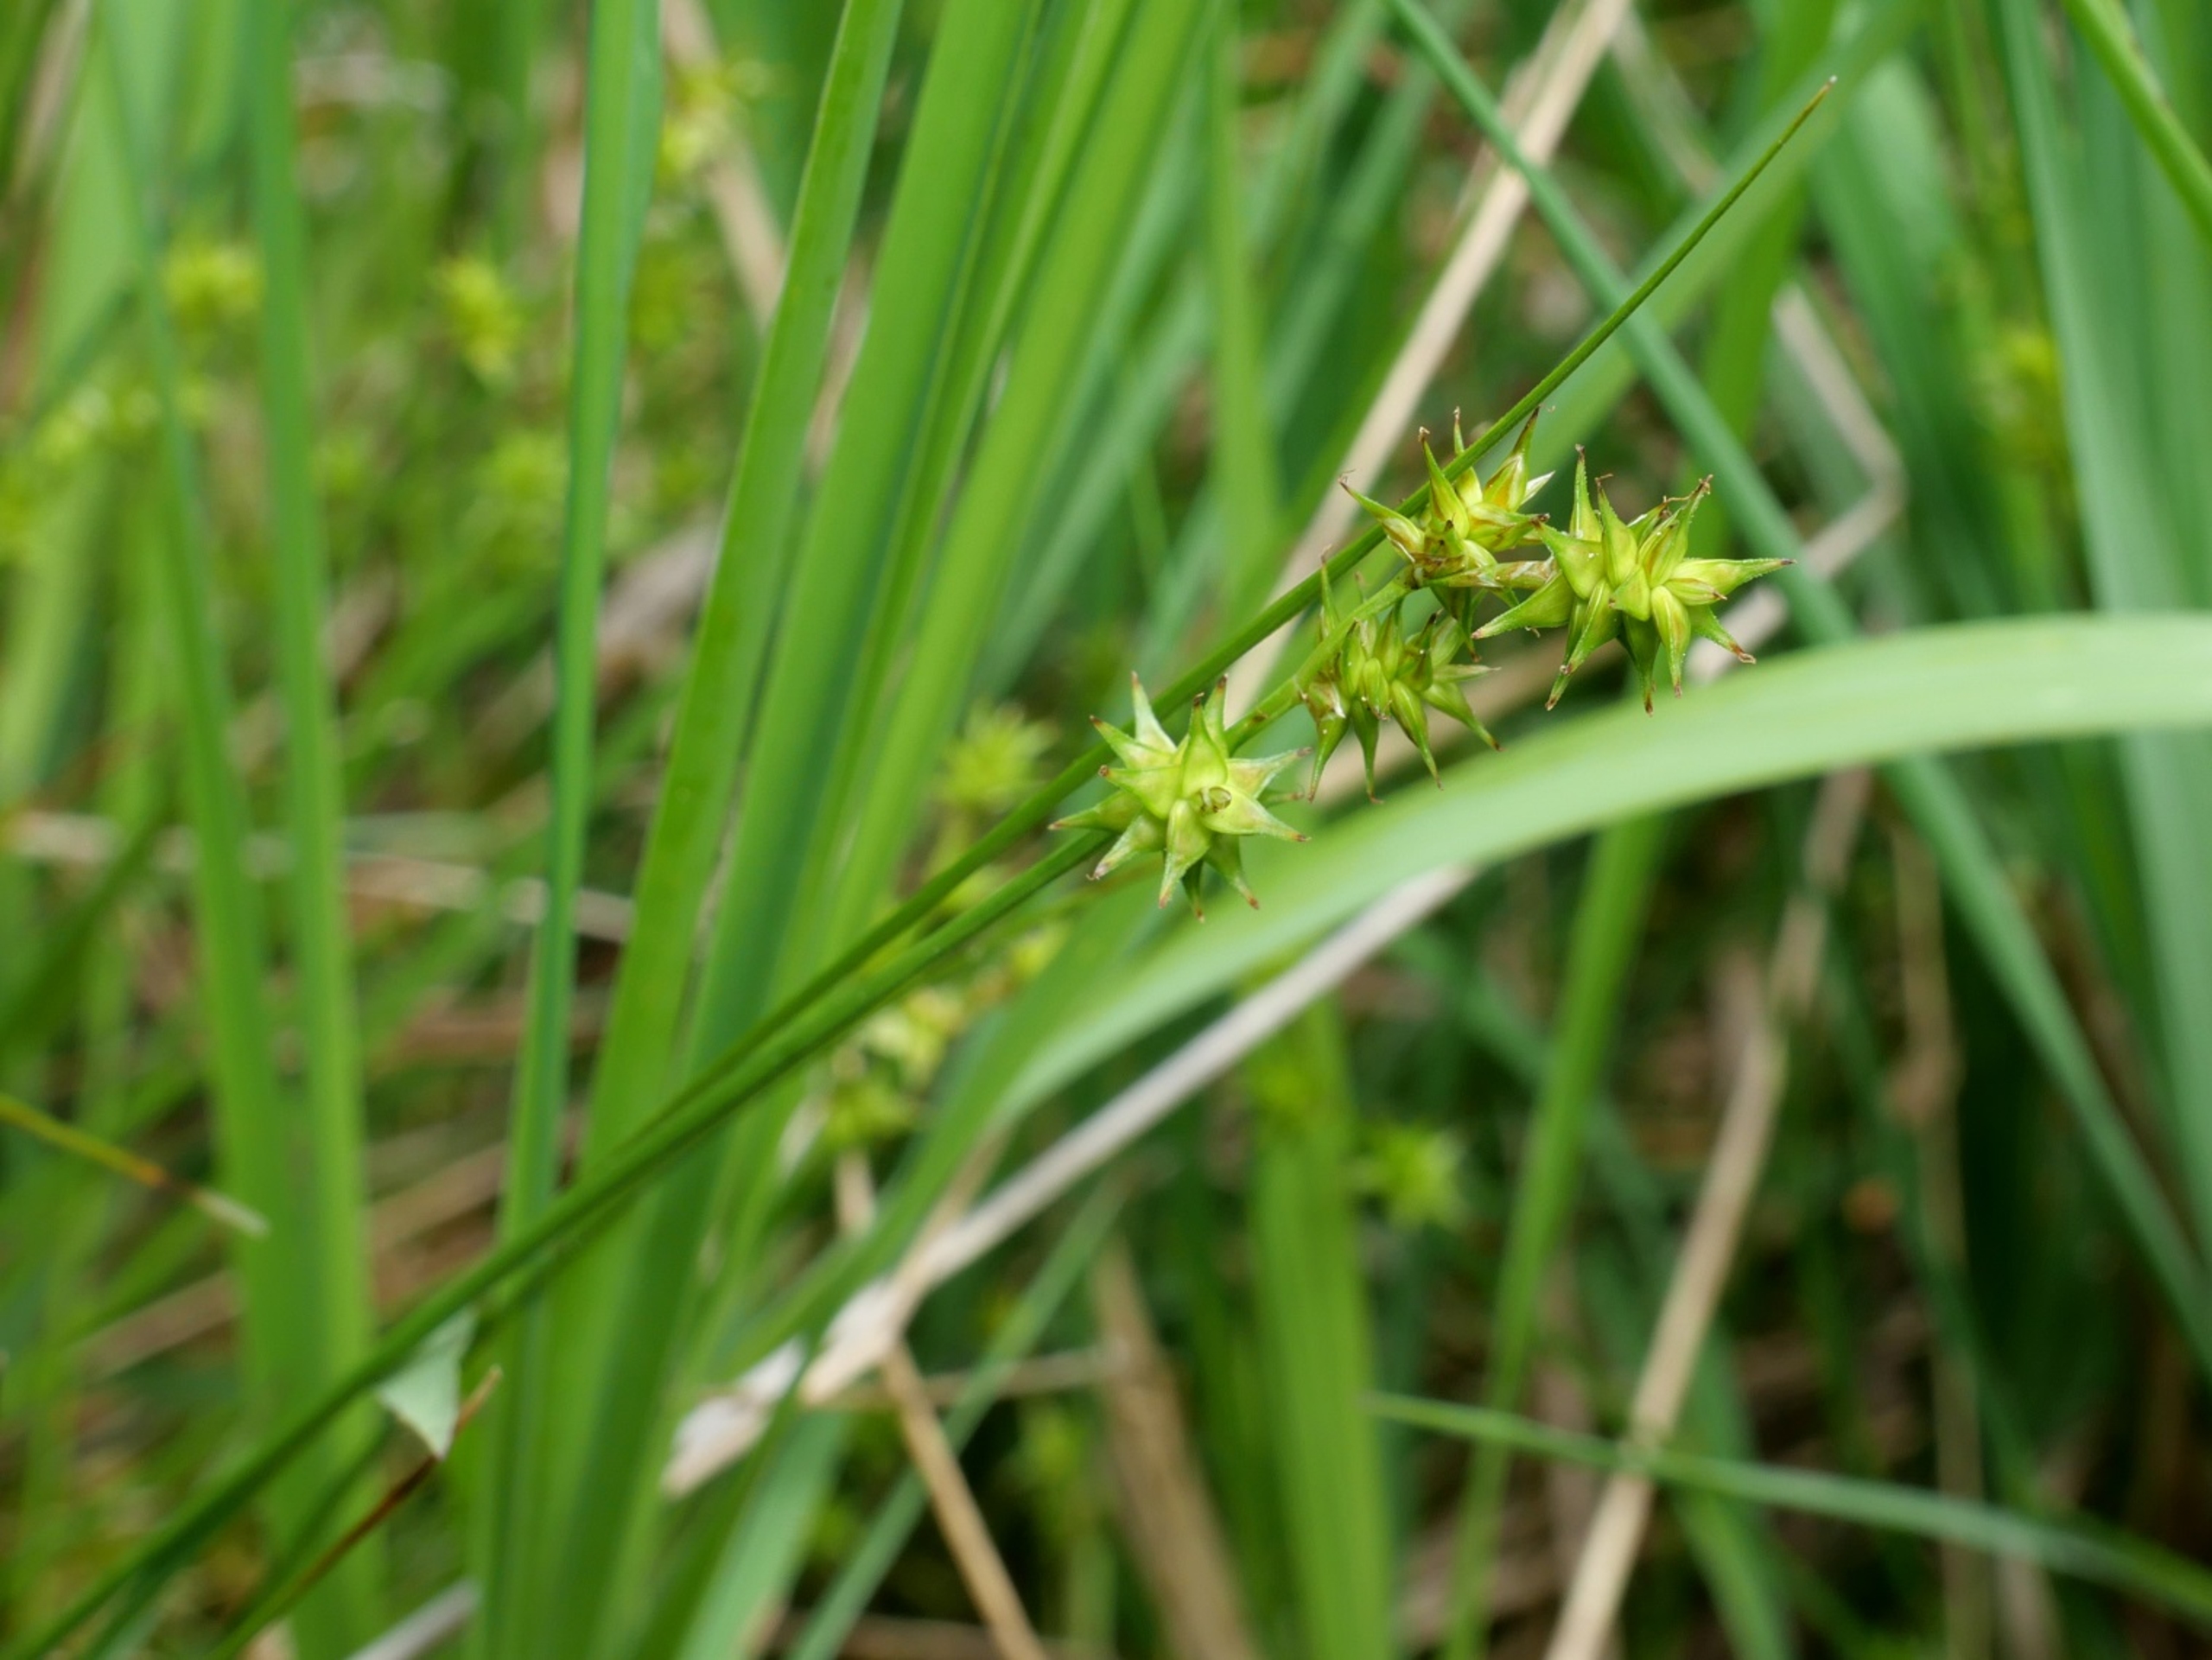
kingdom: Plantae
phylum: Tracheophyta
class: Liliopsida
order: Poales
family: Cyperaceae
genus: Carex
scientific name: Carex echinata
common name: Stjerne-star
